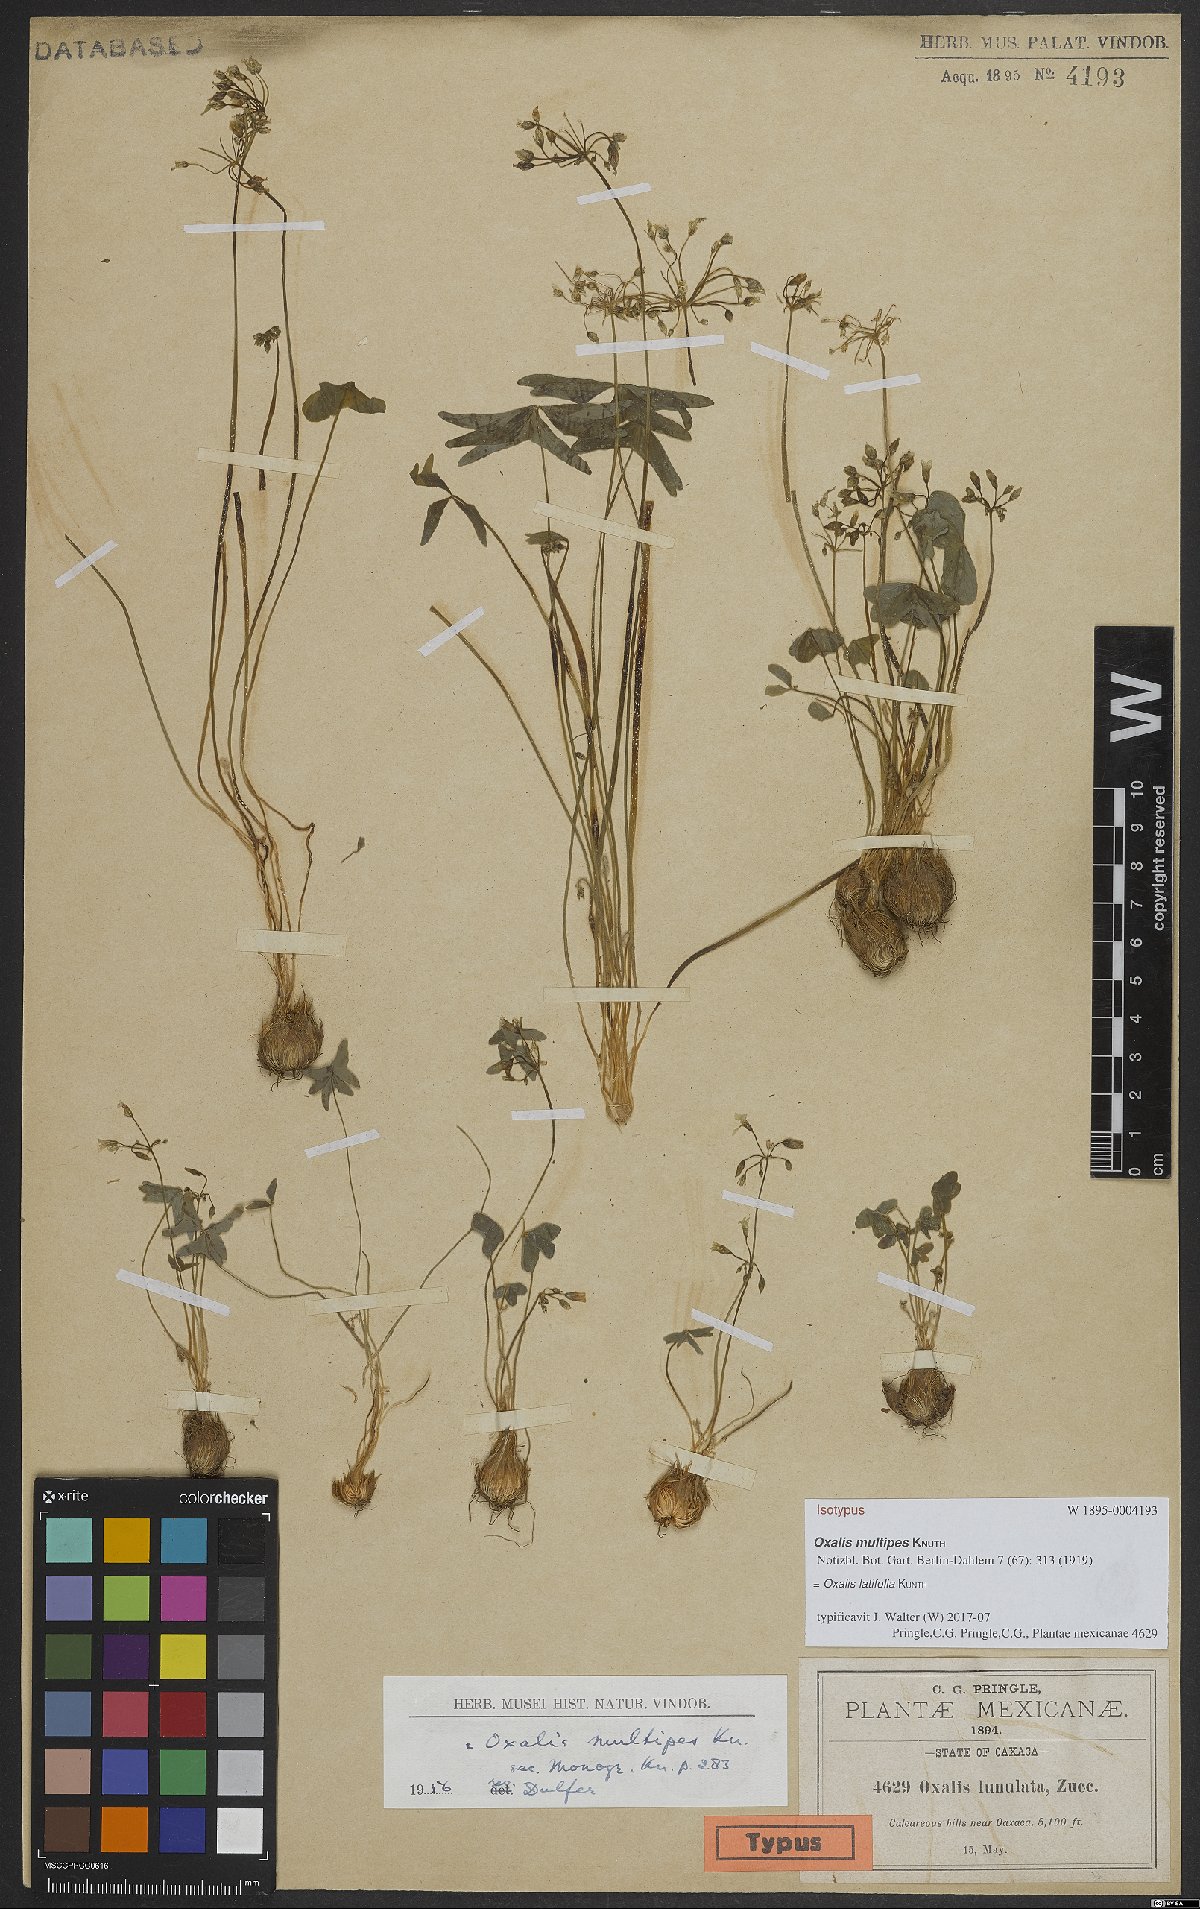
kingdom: Plantae
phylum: Tracheophyta
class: Magnoliopsida
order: Oxalidales
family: Oxalidaceae
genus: Oxalis
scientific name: Oxalis latifolia
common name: Garden pink-sorrel
